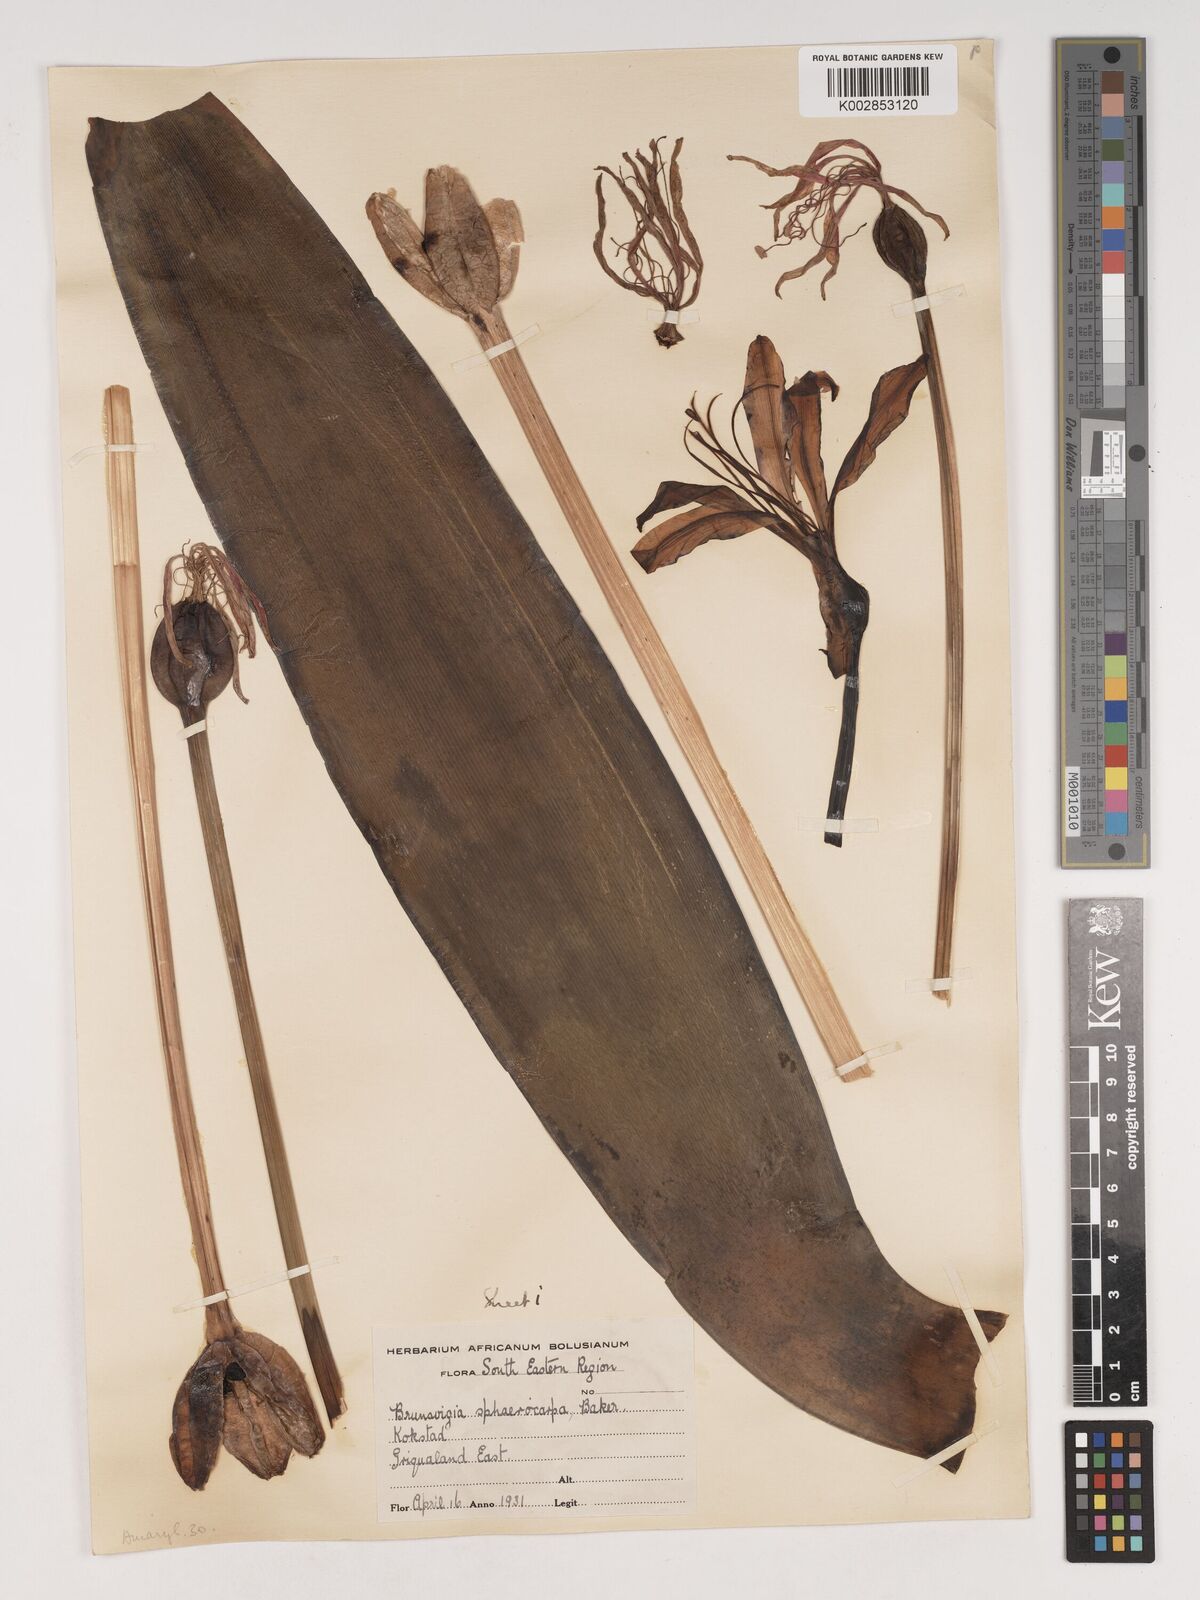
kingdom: Plantae
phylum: Tracheophyta
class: Liliopsida
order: Asparagales
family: Amaryllidaceae
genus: Brunsvigia
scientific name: Brunsvigia grandiflora
